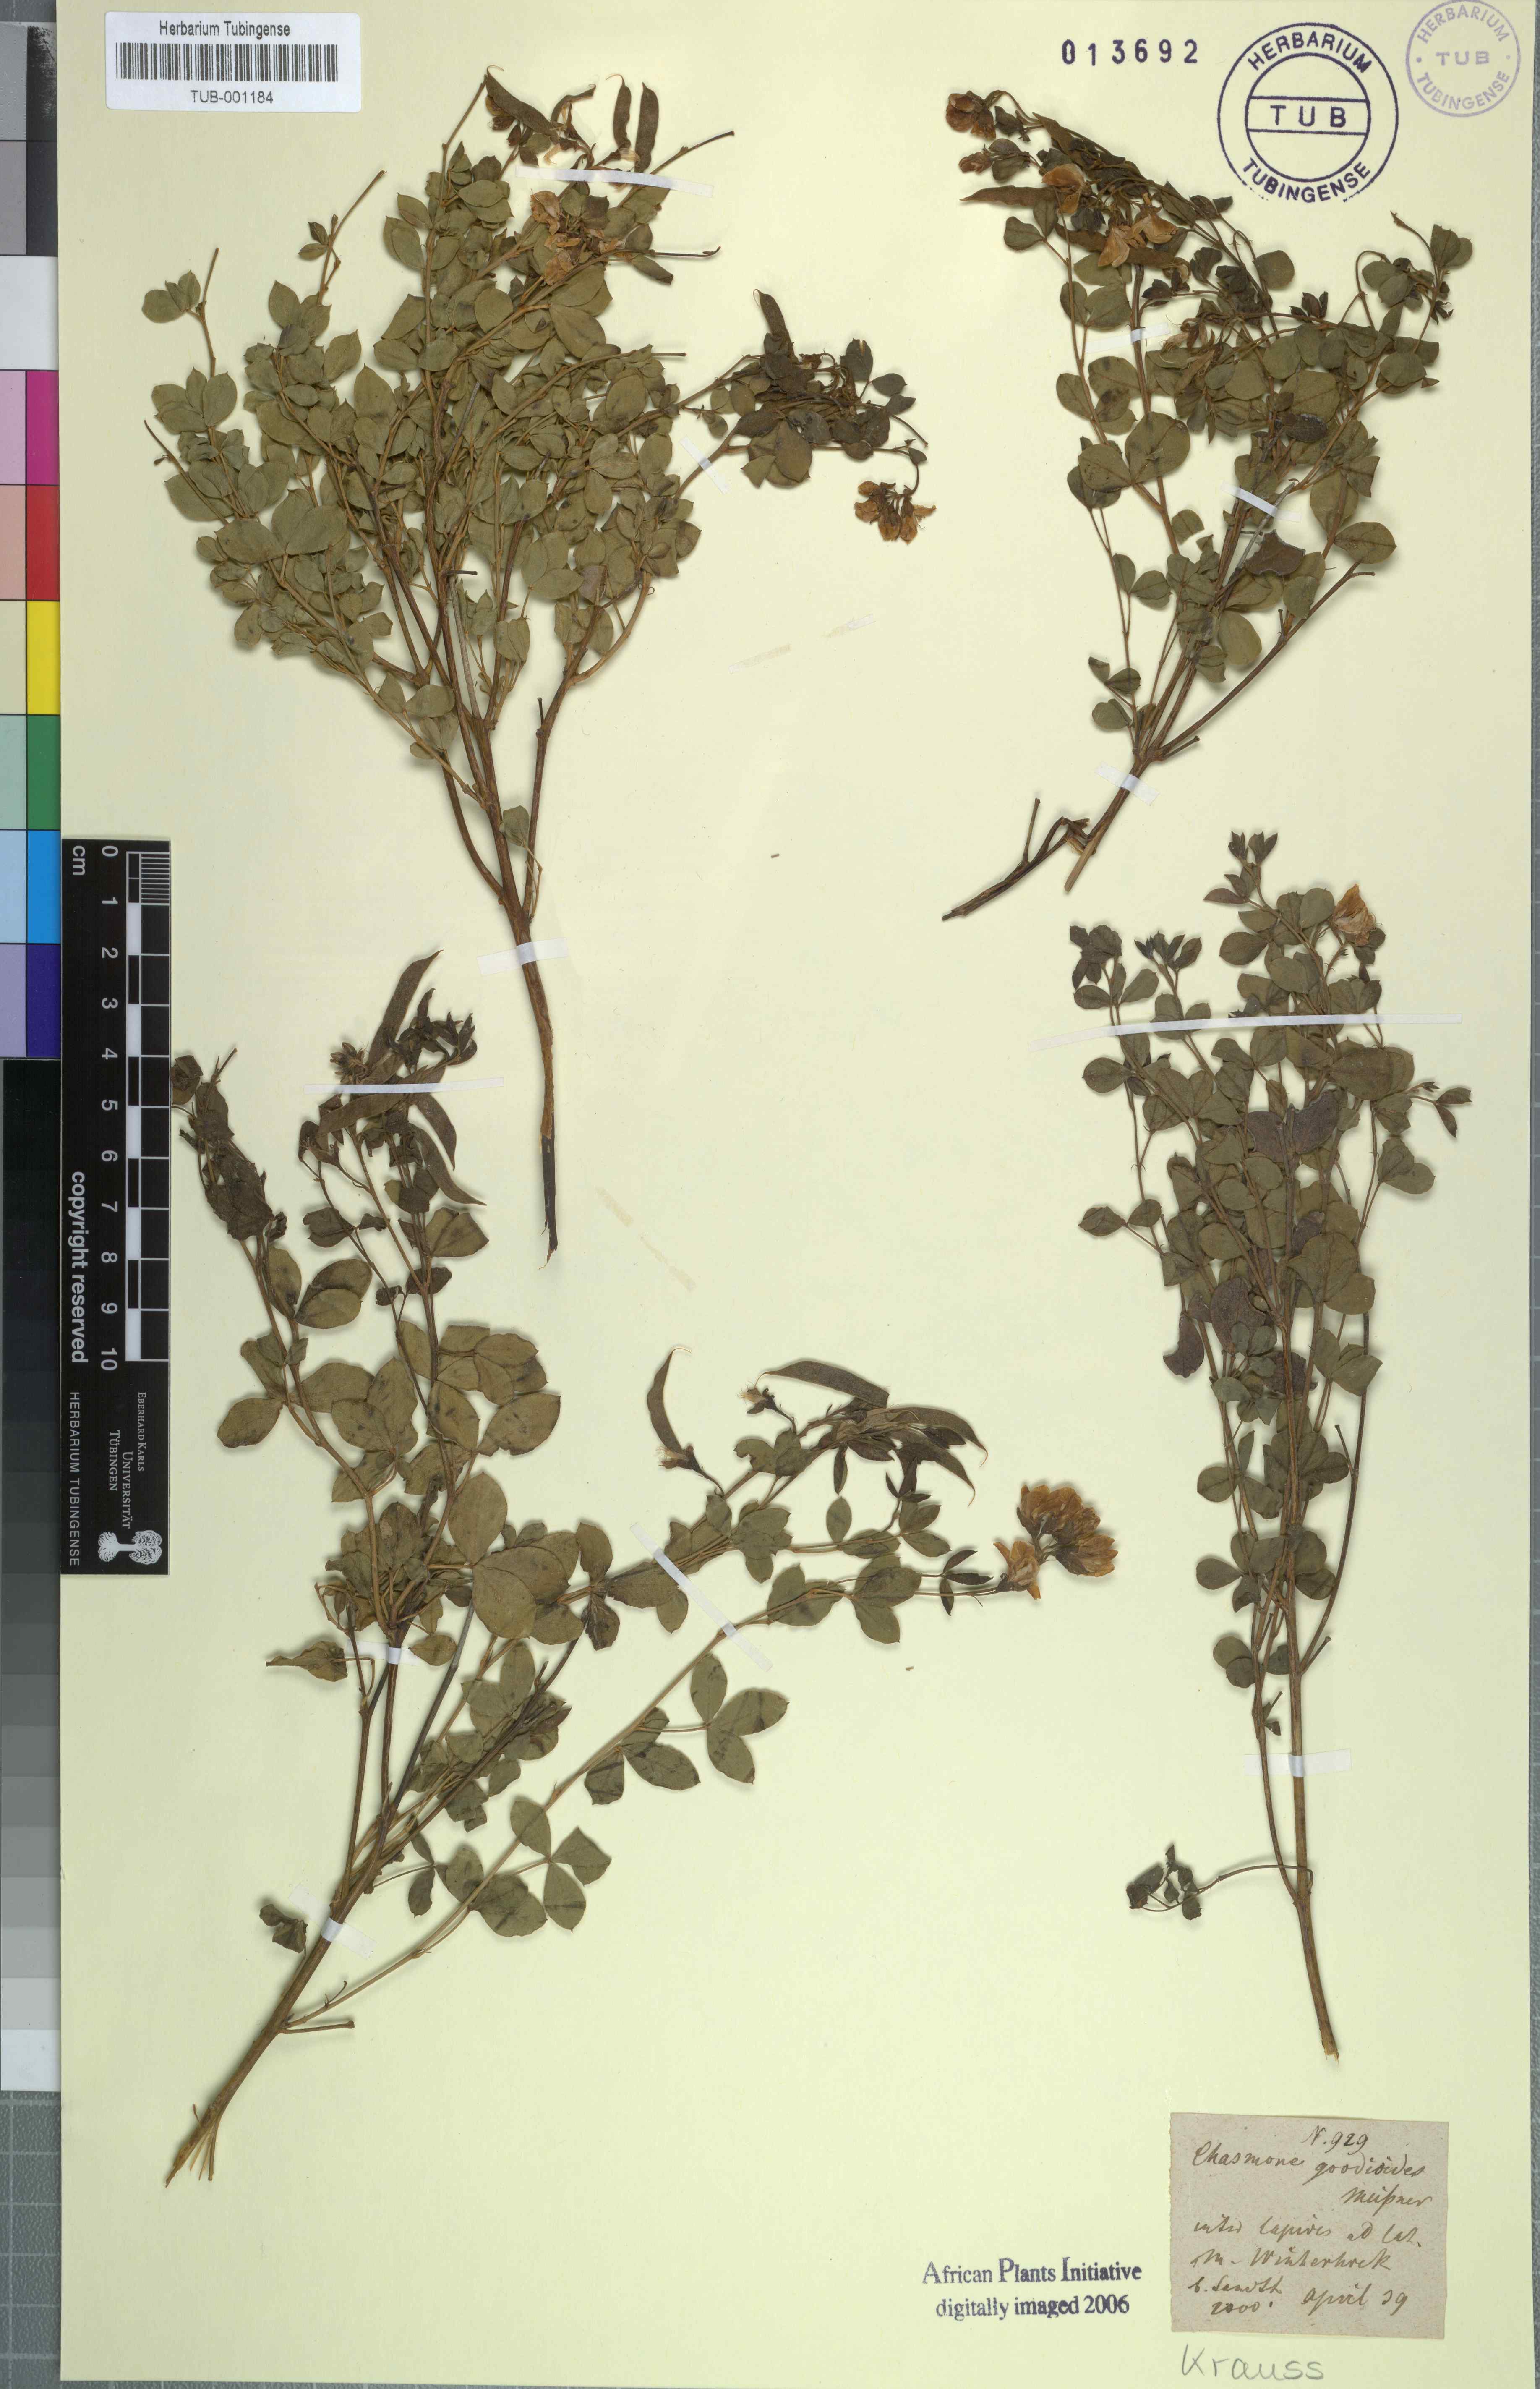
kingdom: Plantae
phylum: Tracheophyta
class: Magnoliopsida
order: Fabales
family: Fabaceae
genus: Argyrolobium
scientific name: Argyrolobium crassifolium
